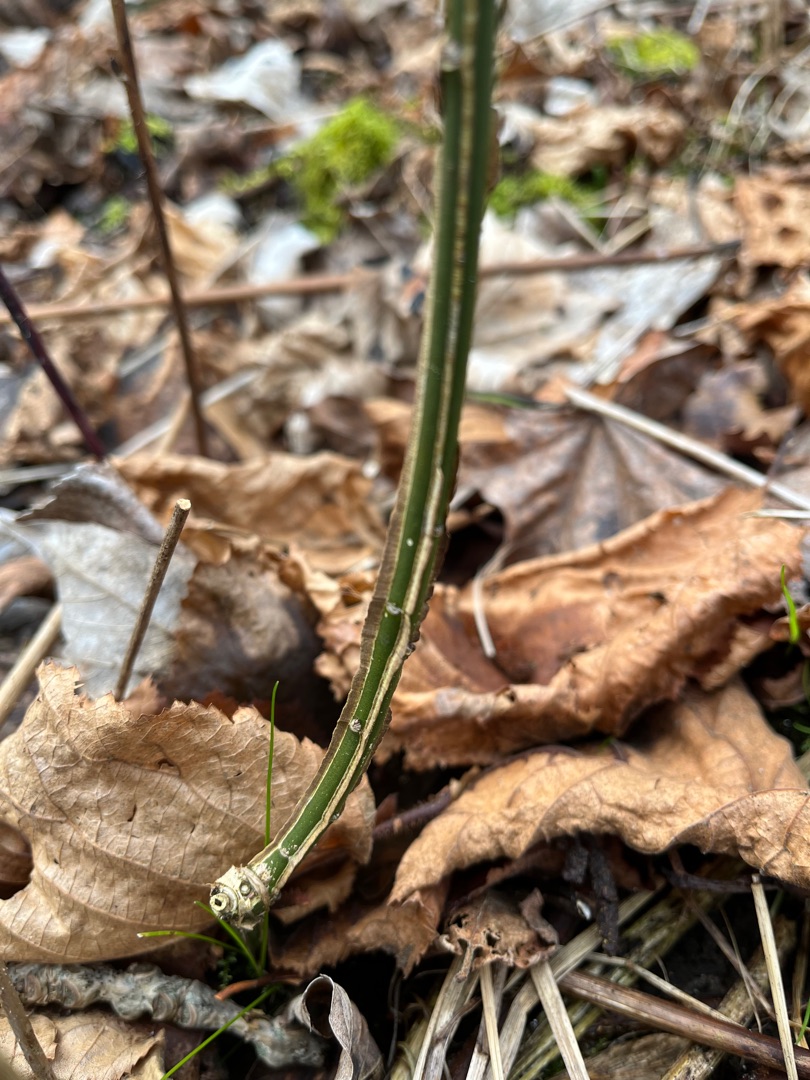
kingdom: Plantae
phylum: Tracheophyta
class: Magnoliopsida
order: Celastrales
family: Celastraceae
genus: Euonymus
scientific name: Euonymus europaeus
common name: Benved
